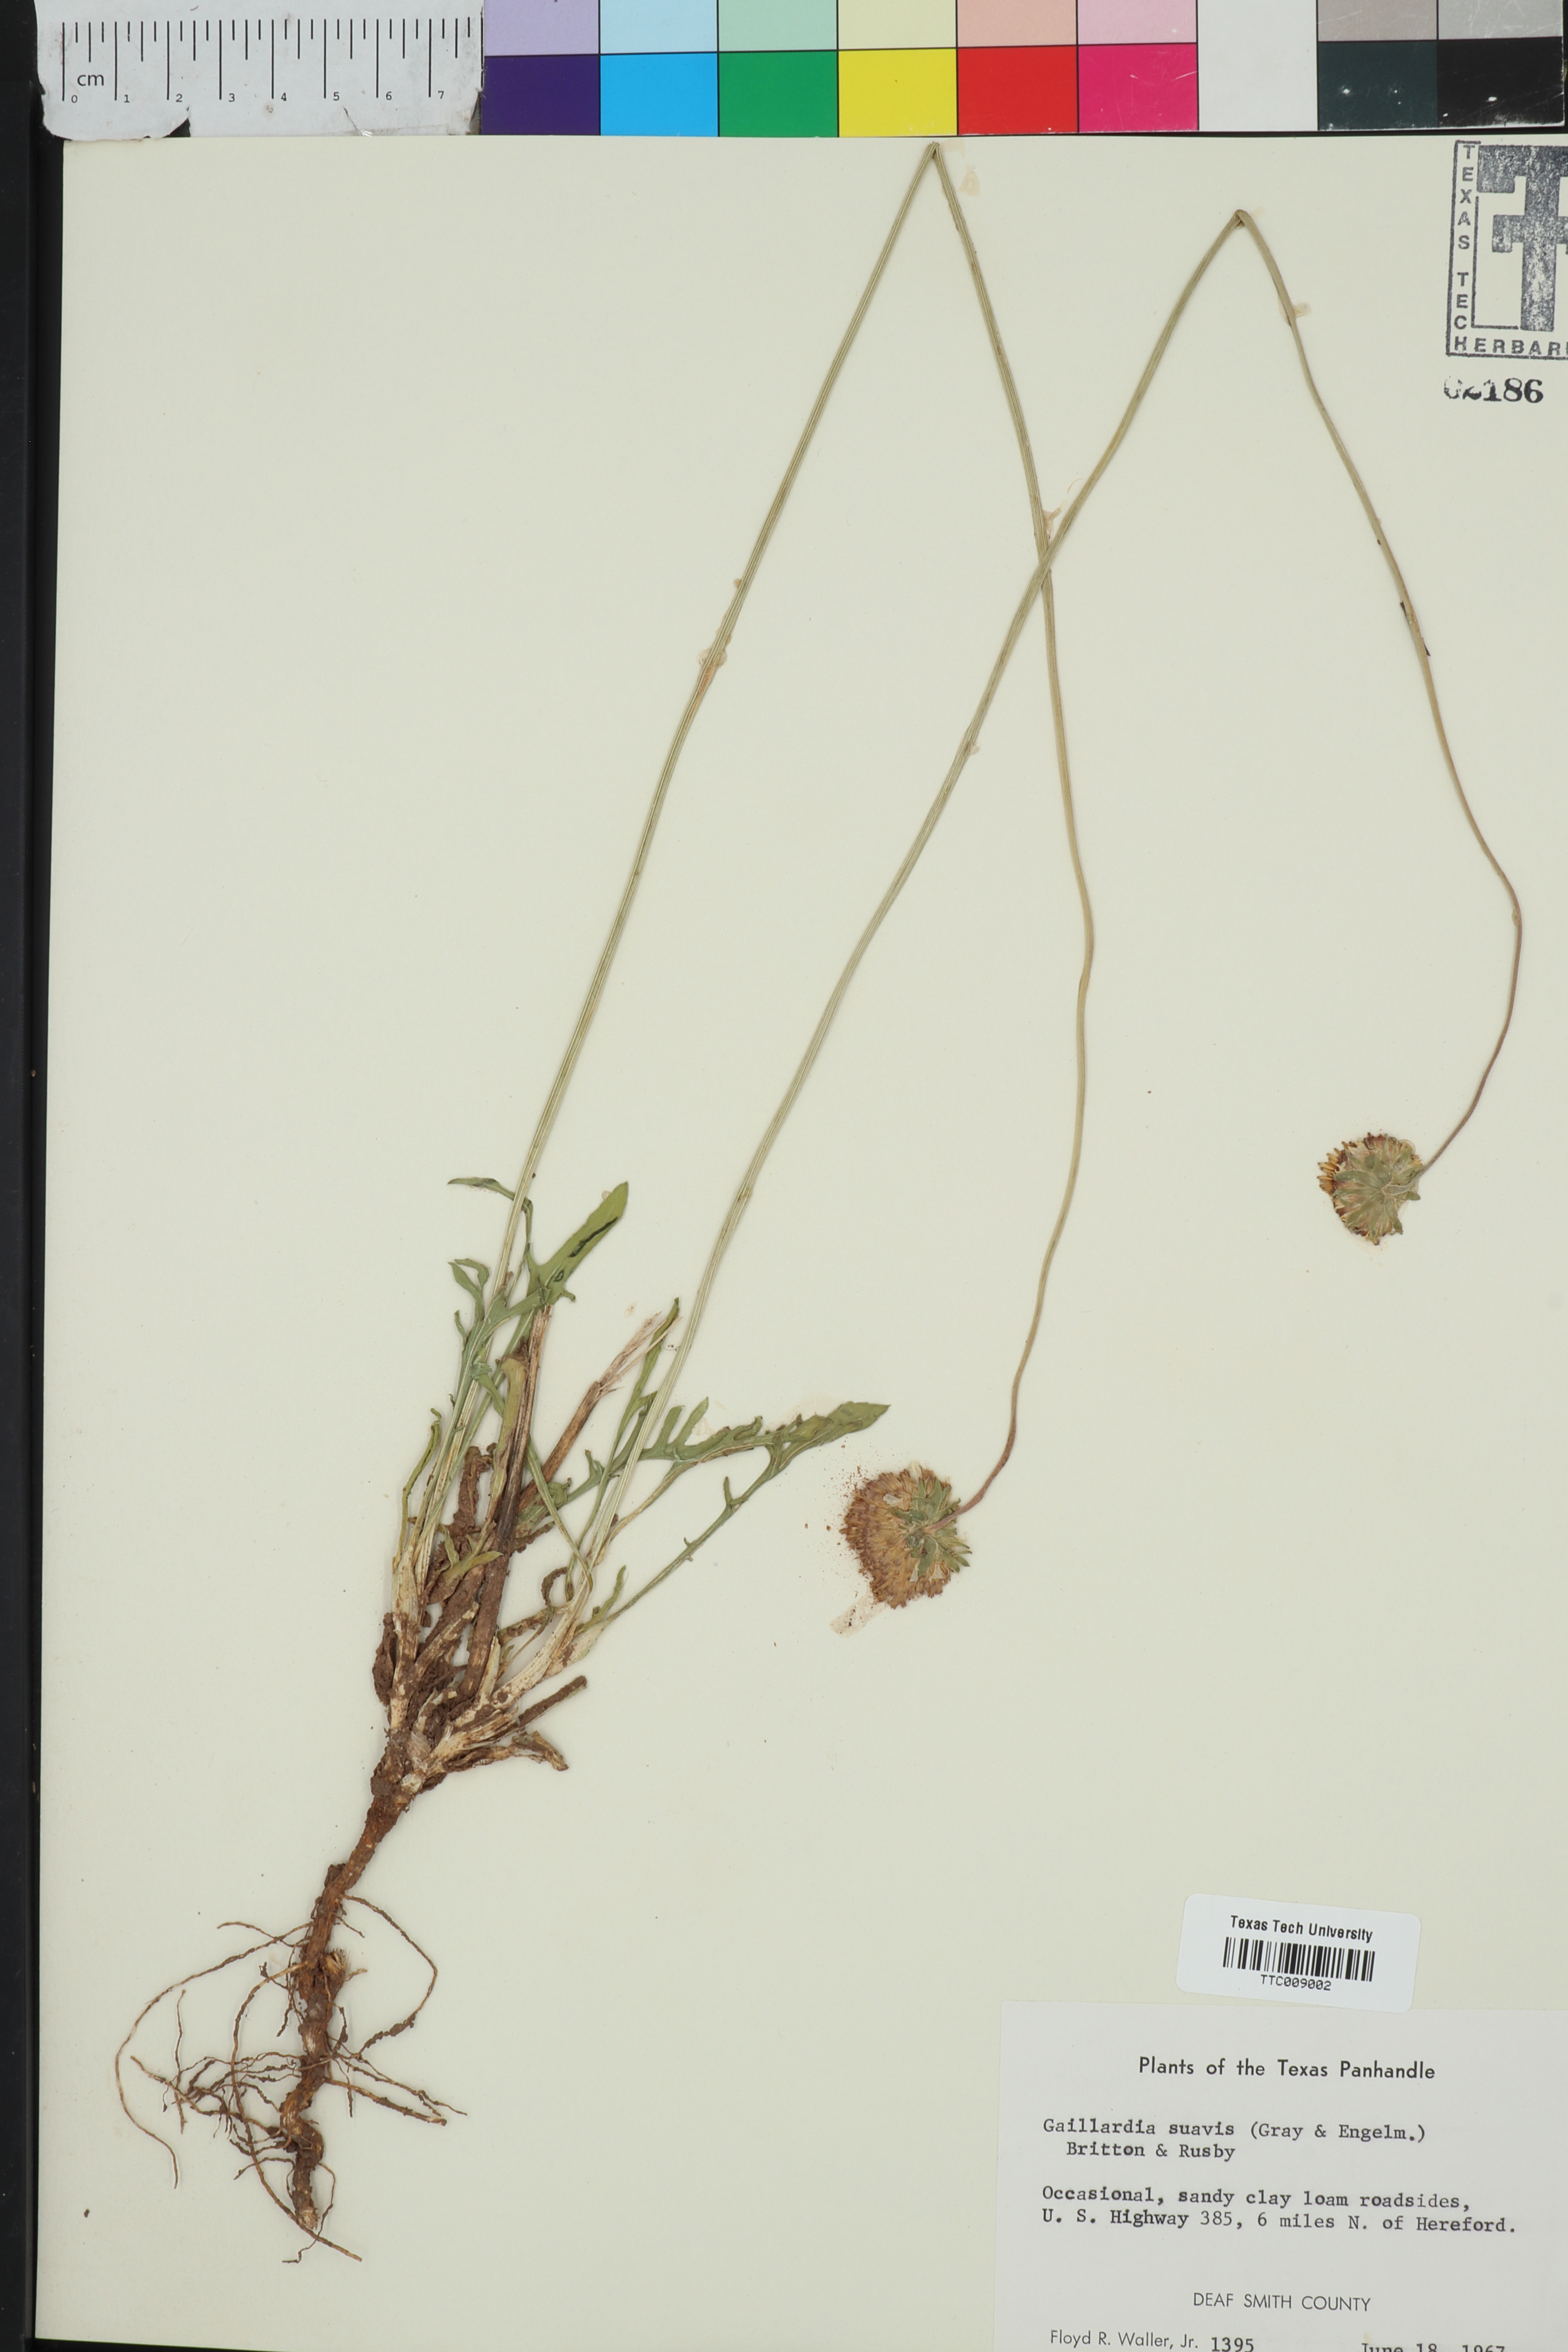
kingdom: Plantae
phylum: Tracheophyta
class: Magnoliopsida
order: Asterales
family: Asteraceae
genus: Gaillardia
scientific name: Gaillardia suavis
